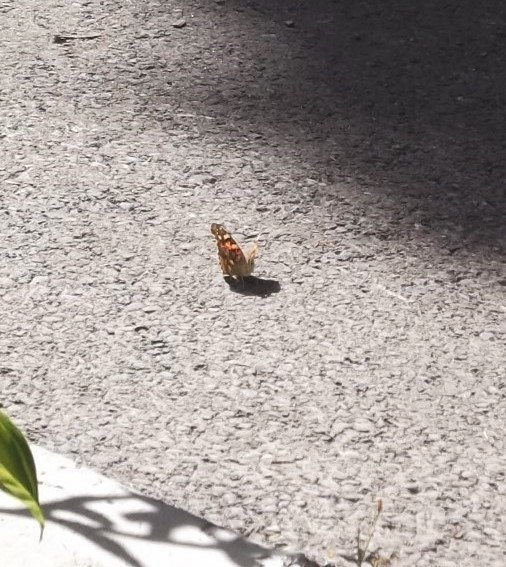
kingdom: Animalia
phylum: Arthropoda
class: Insecta
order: Lepidoptera
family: Nymphalidae
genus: Vanessa
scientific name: Vanessa cardui
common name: Painted Lady
